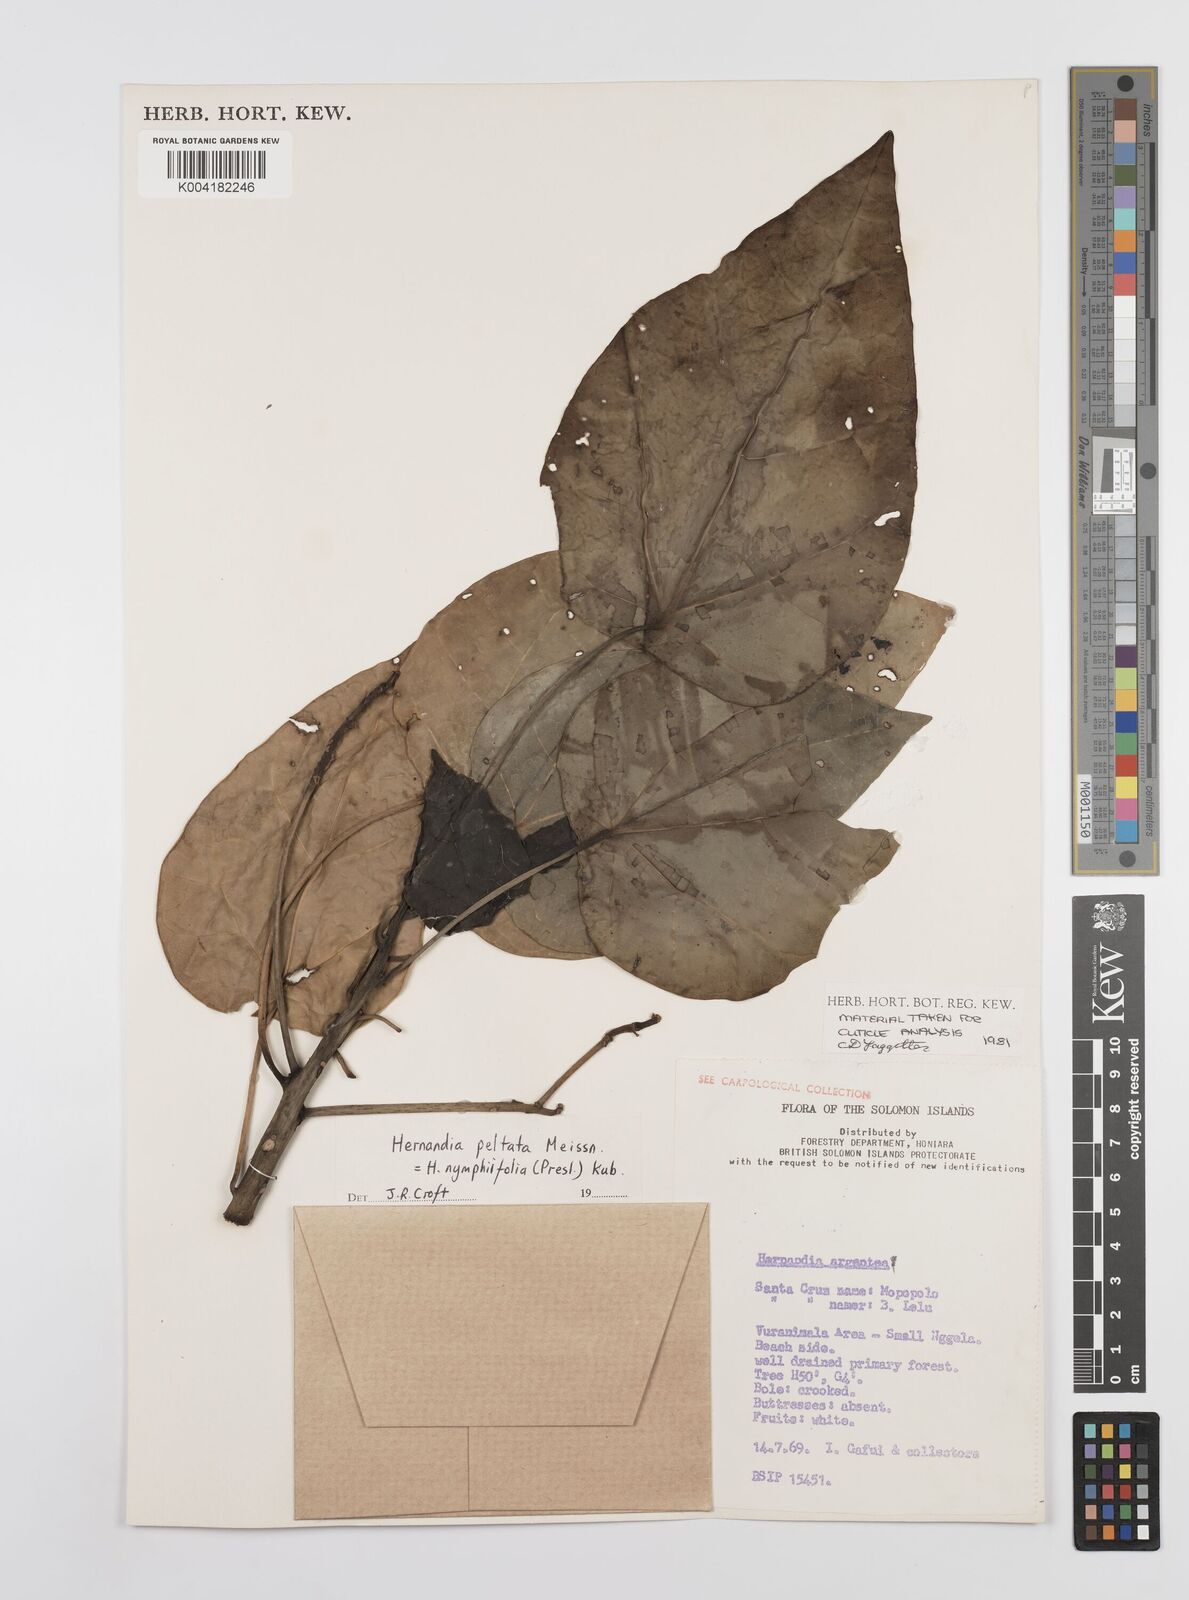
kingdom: Plantae
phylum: Tracheophyta
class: Magnoliopsida
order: Laurales
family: Hernandiaceae
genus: Hernandia
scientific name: Hernandia nymphaeifolia
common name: Sea hearse
